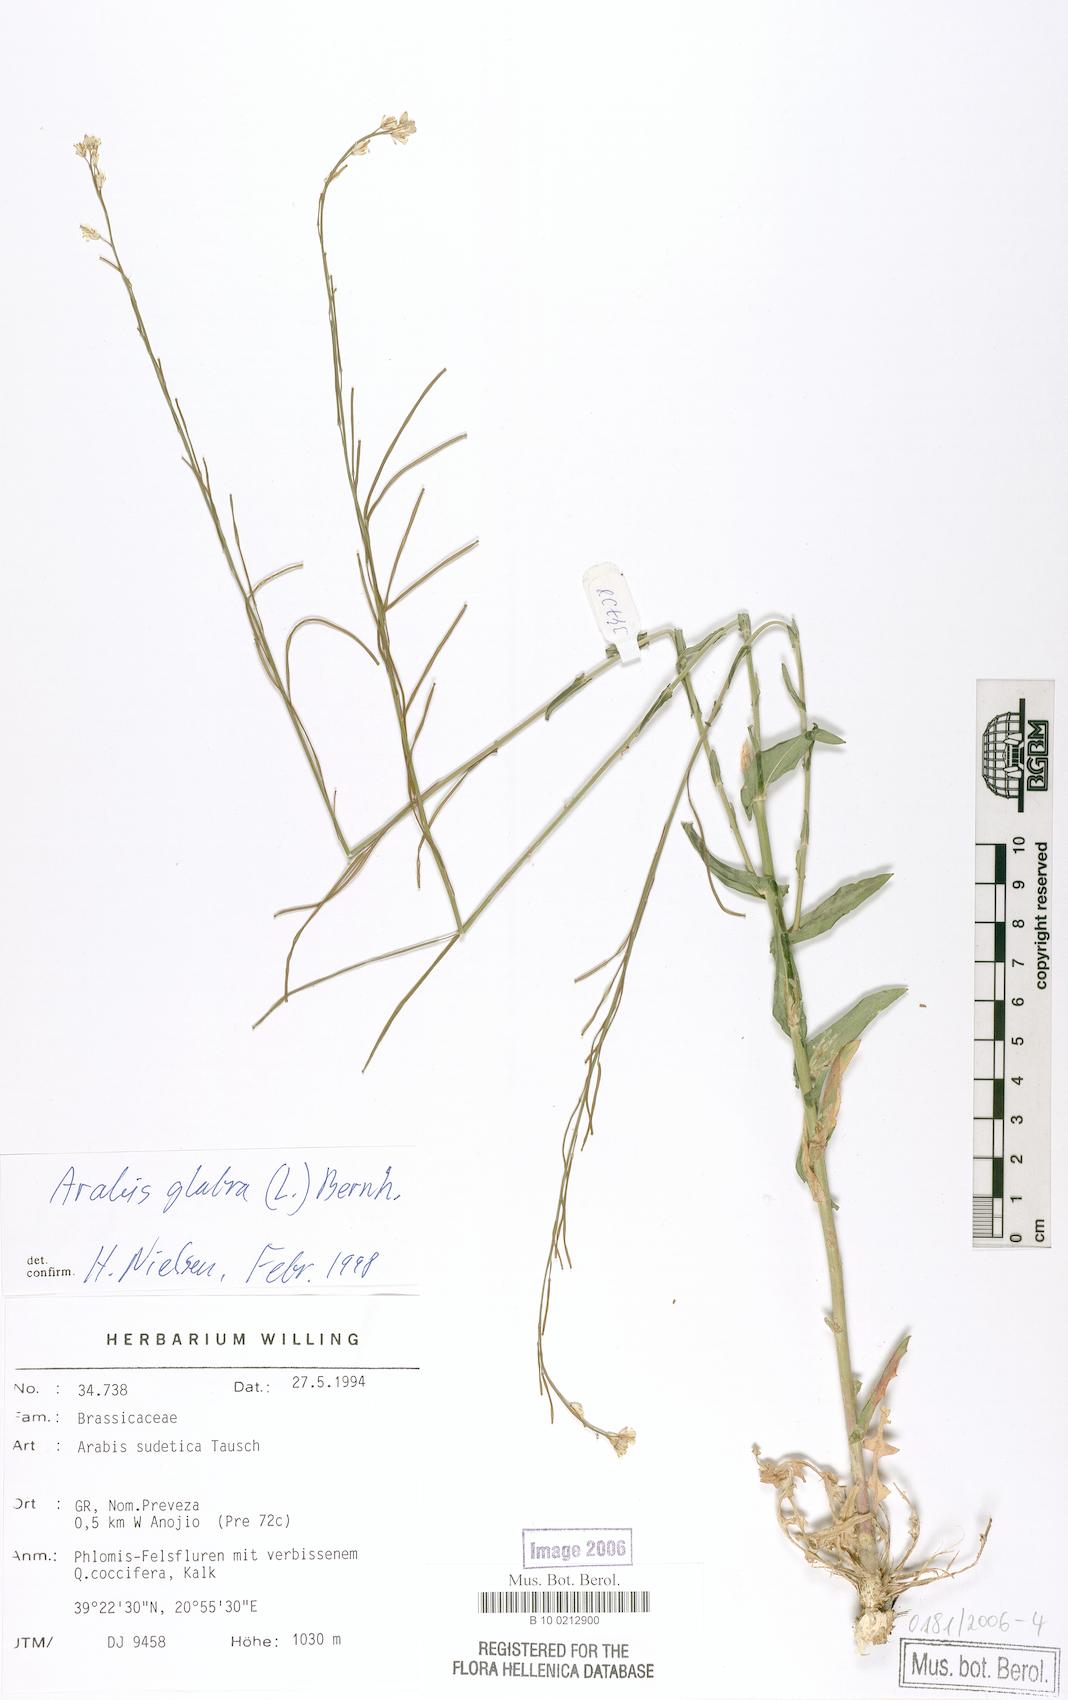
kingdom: Plantae
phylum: Tracheophyta
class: Magnoliopsida
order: Brassicales
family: Brassicaceae
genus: Arabis
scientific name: Arabis sudetica
